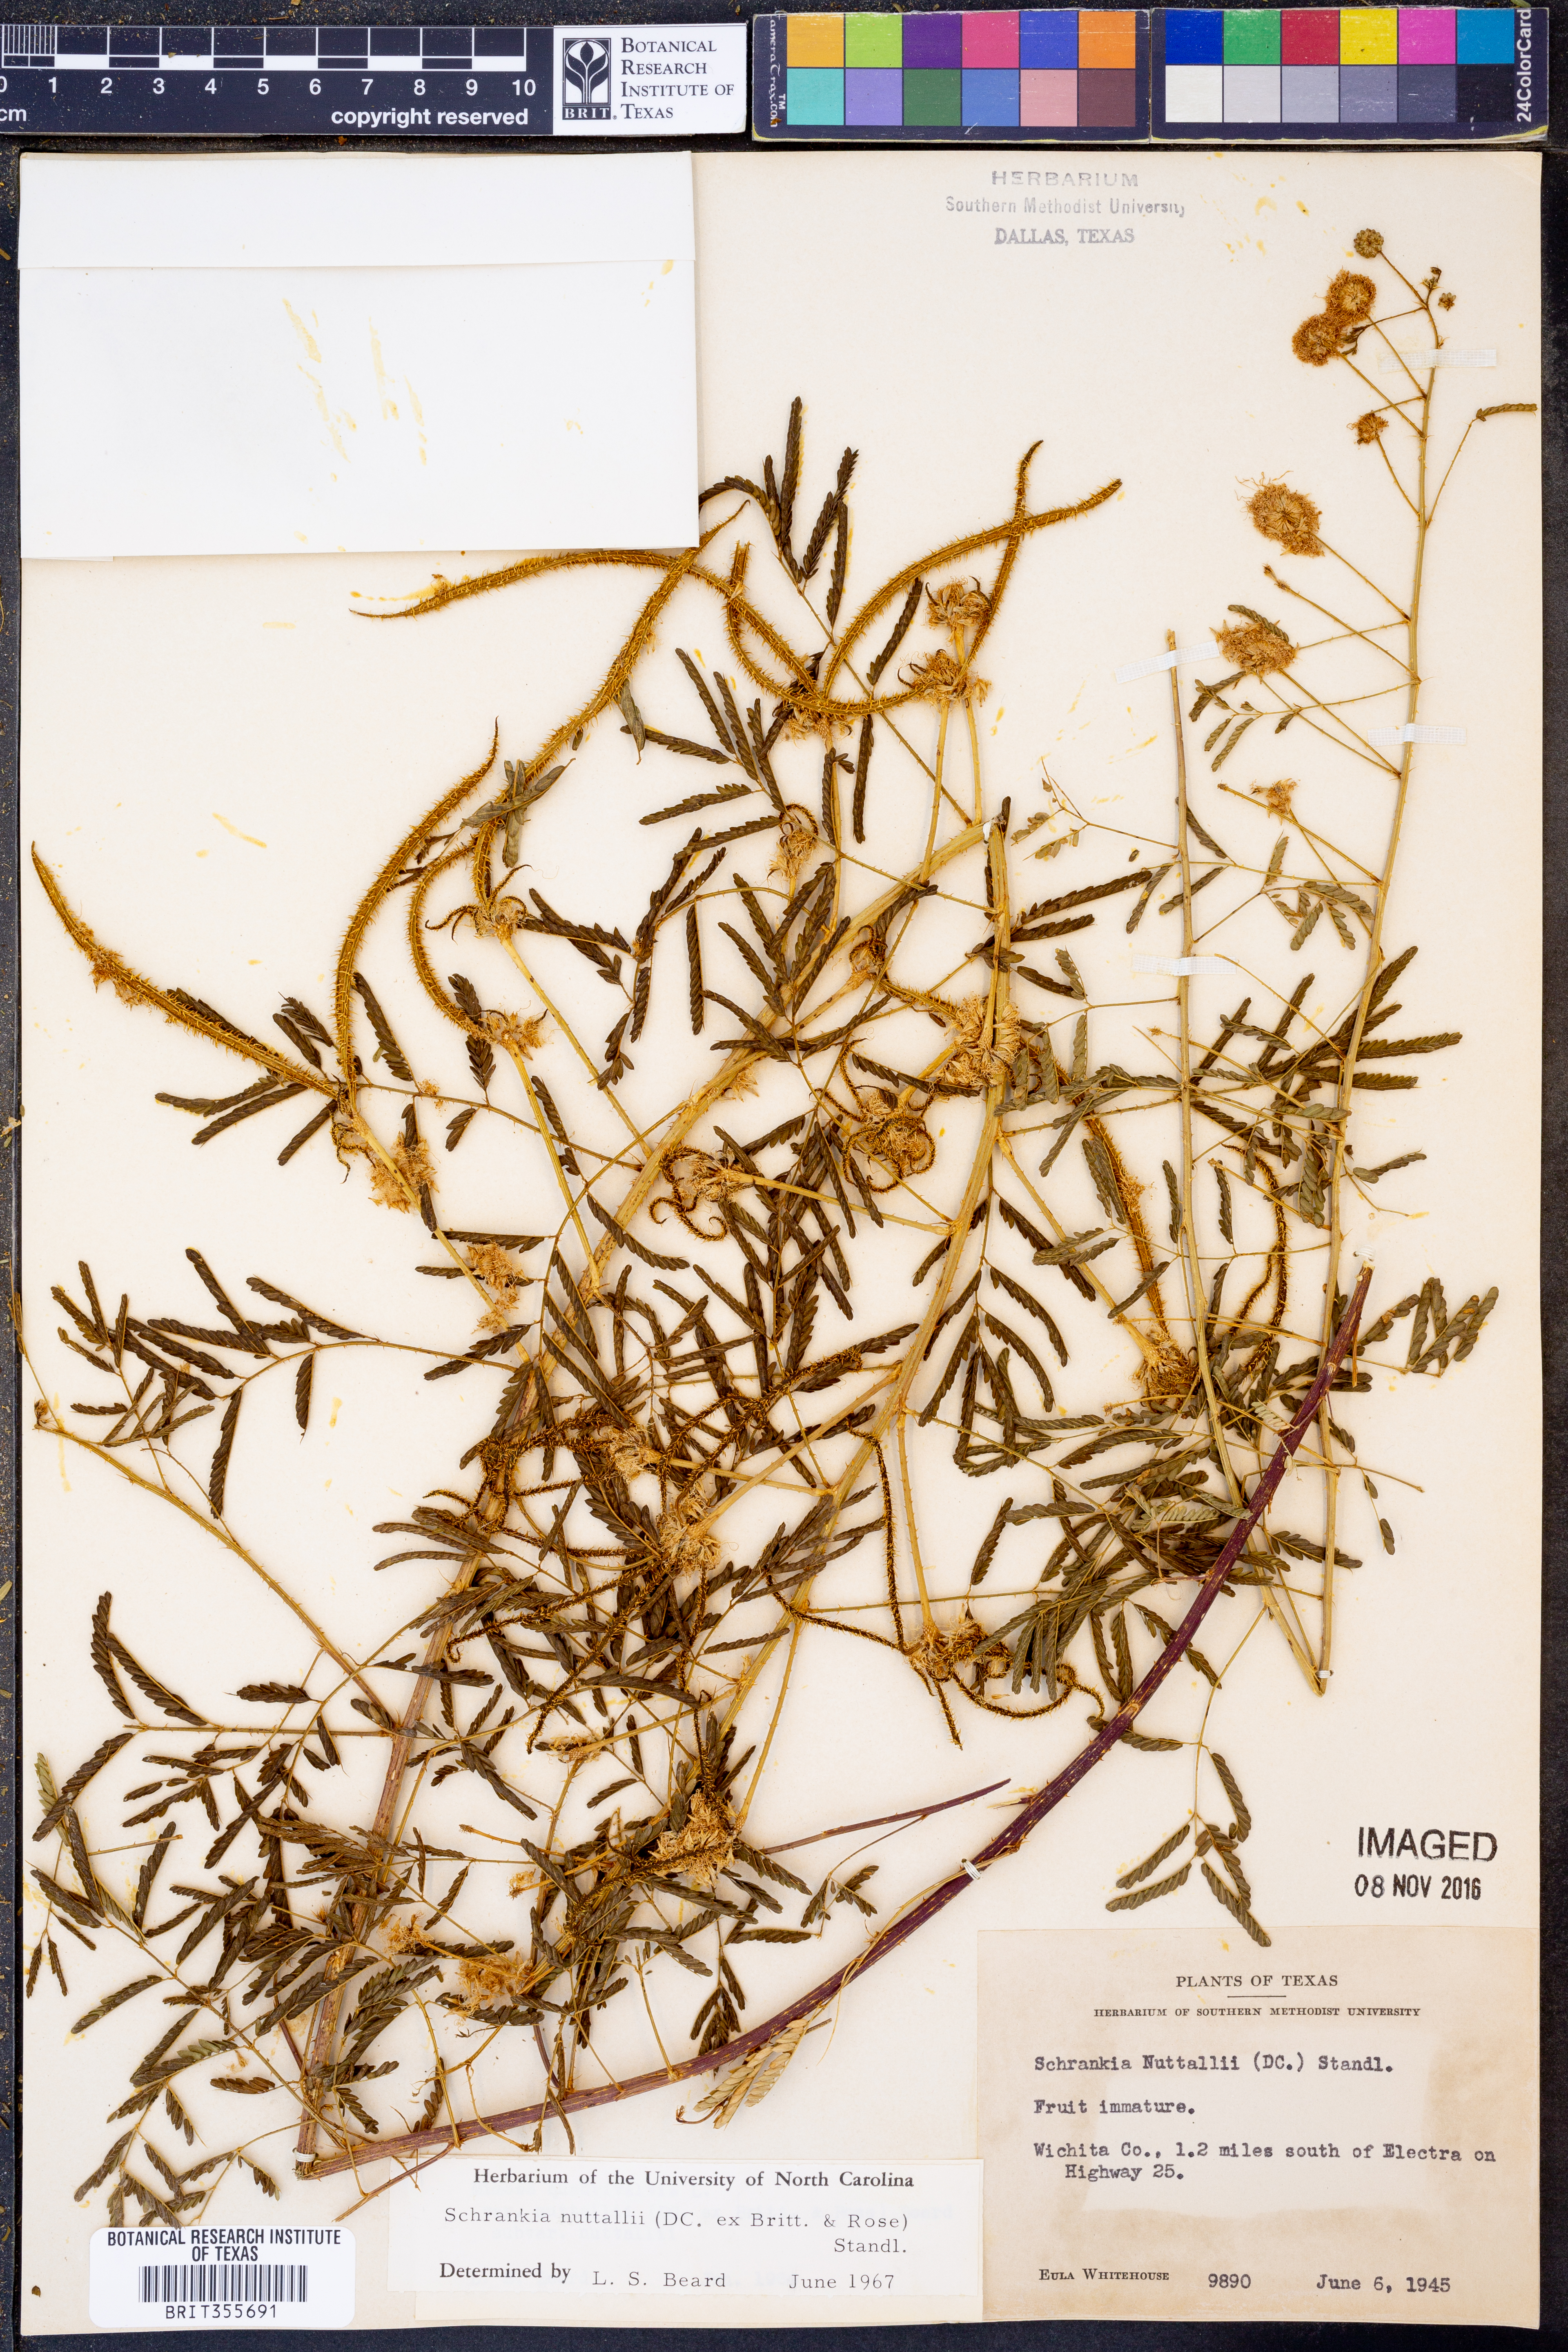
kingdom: Plantae
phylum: Tracheophyta
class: Magnoliopsida
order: Fabales
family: Fabaceae
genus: Mimosa
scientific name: Mimosa quadrivalvis
